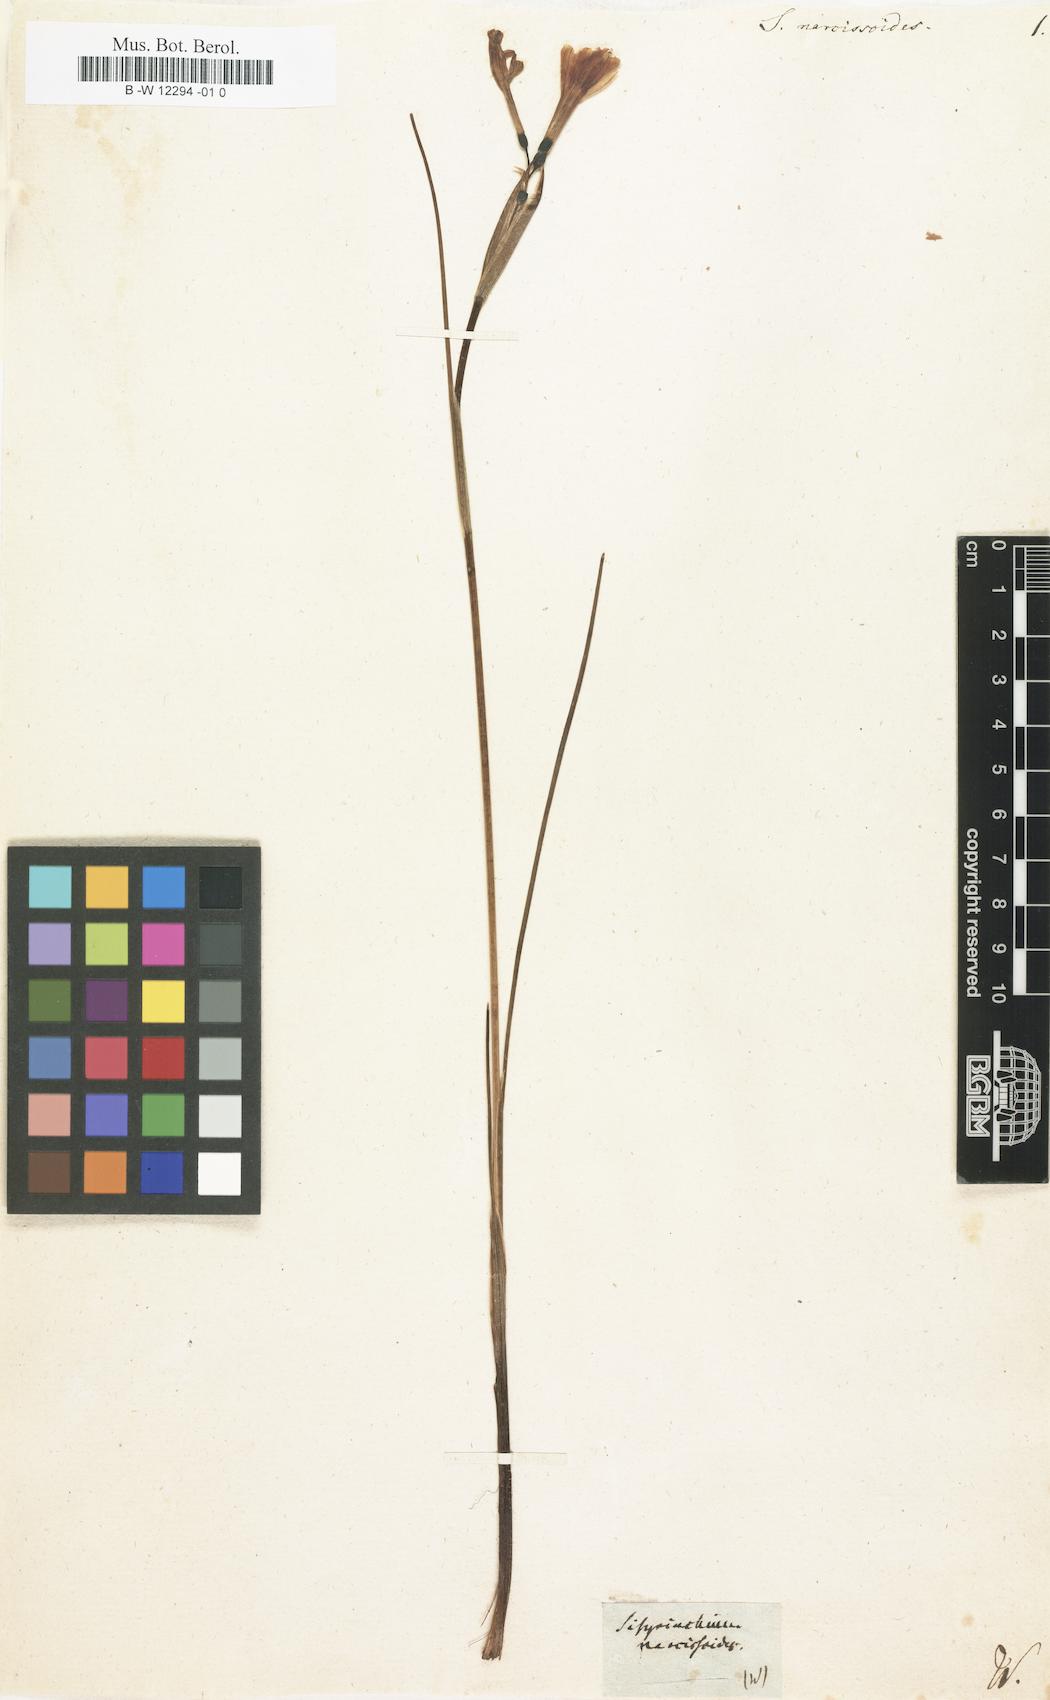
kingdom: Plantae
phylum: Tracheophyta
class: Liliopsida
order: Asparagales
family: Iridaceae
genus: Olsynium
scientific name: Olsynium biflorum
